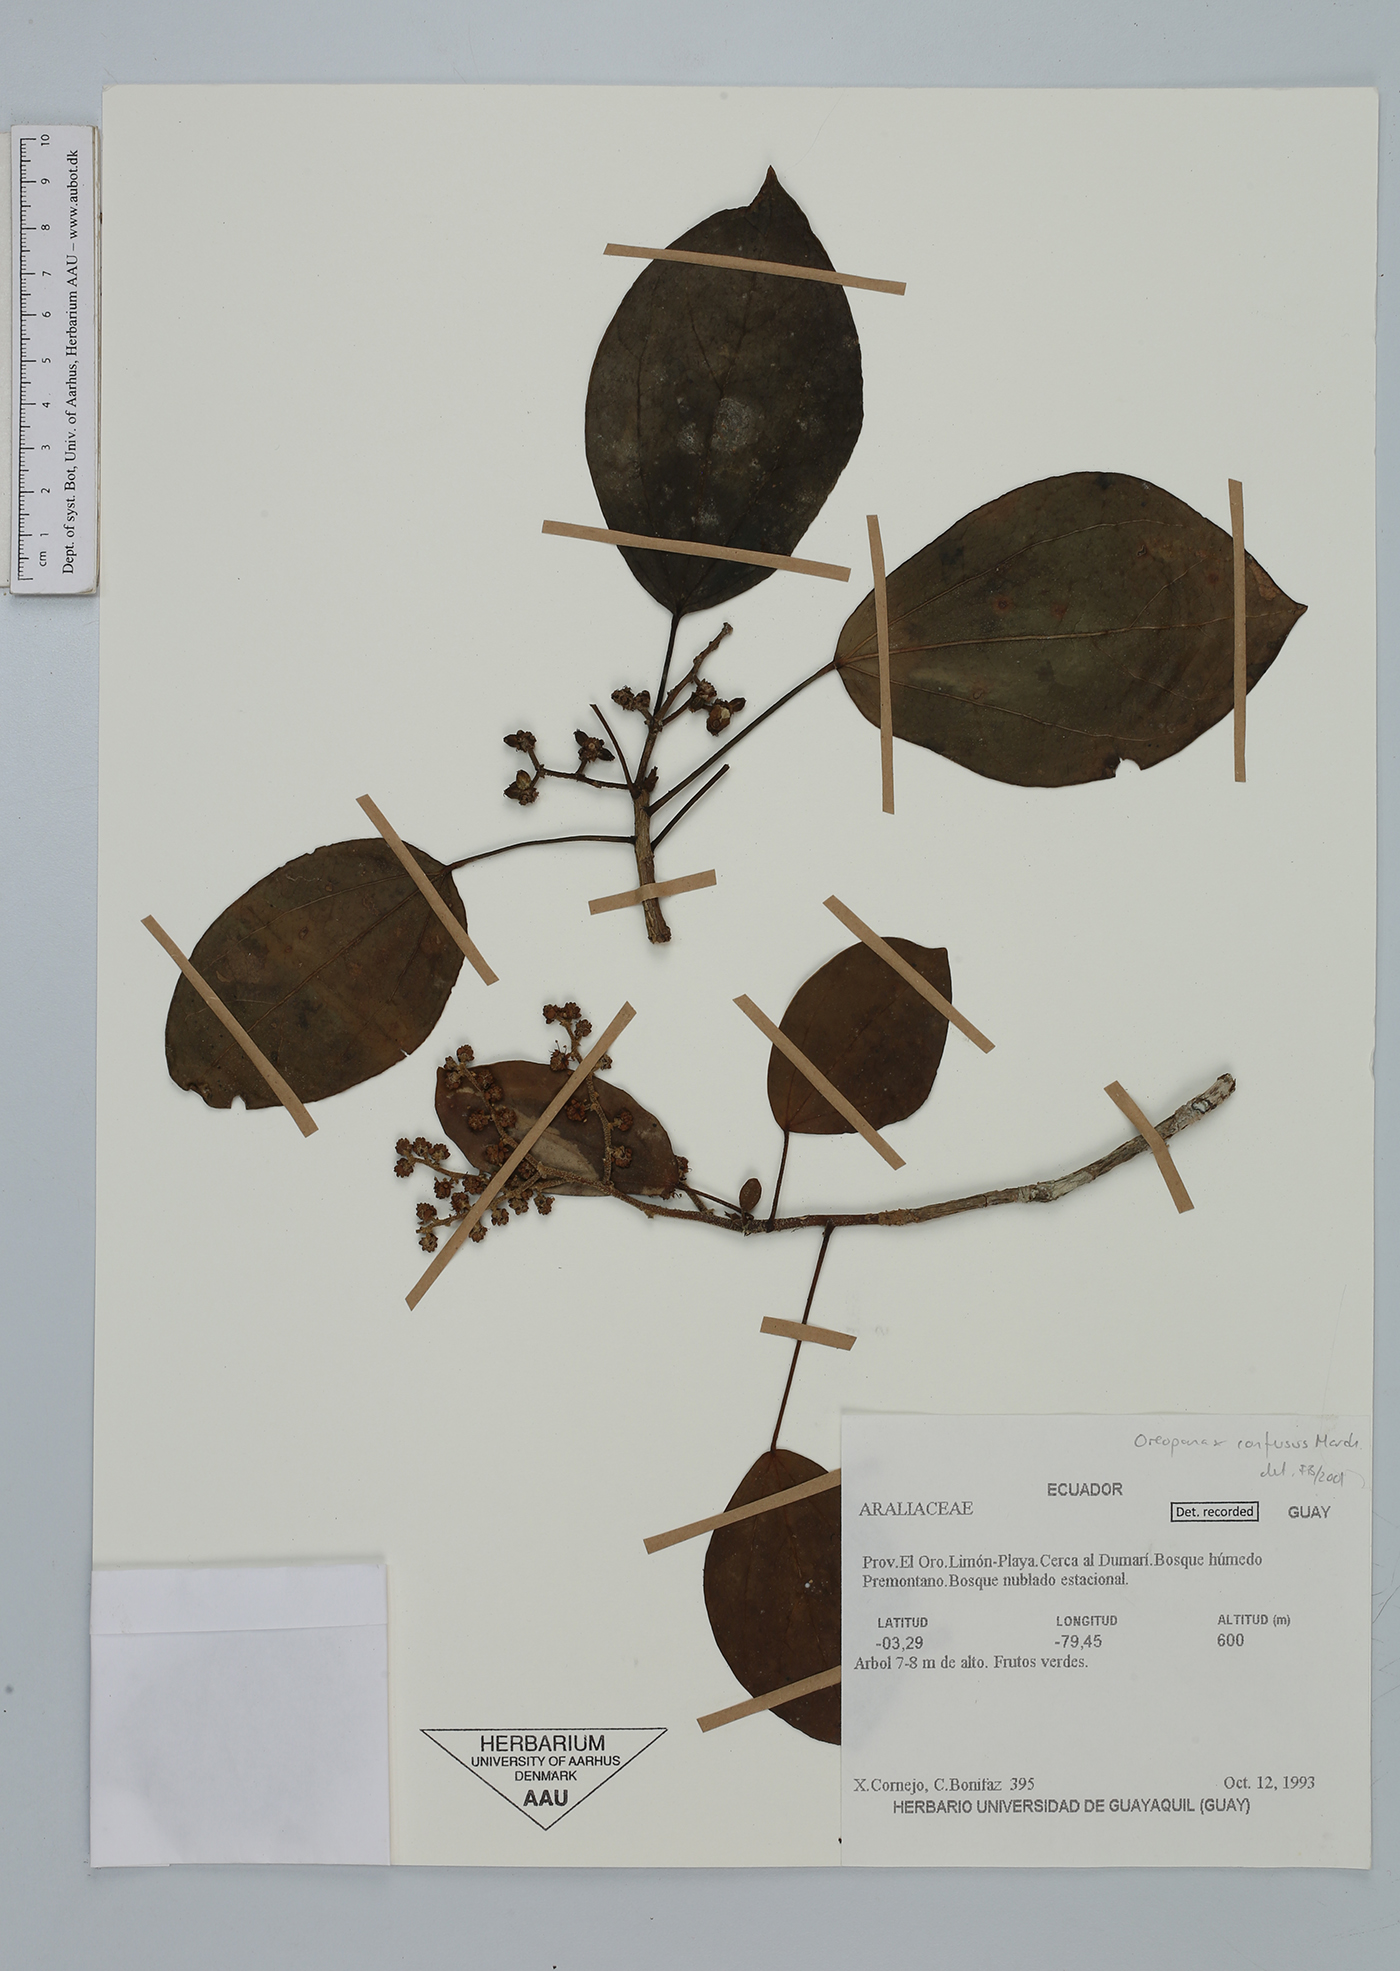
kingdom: Plantae
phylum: Tracheophyta
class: Magnoliopsida
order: Apiales
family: Araliaceae
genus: Oreopanax
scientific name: Oreopanax confusus
